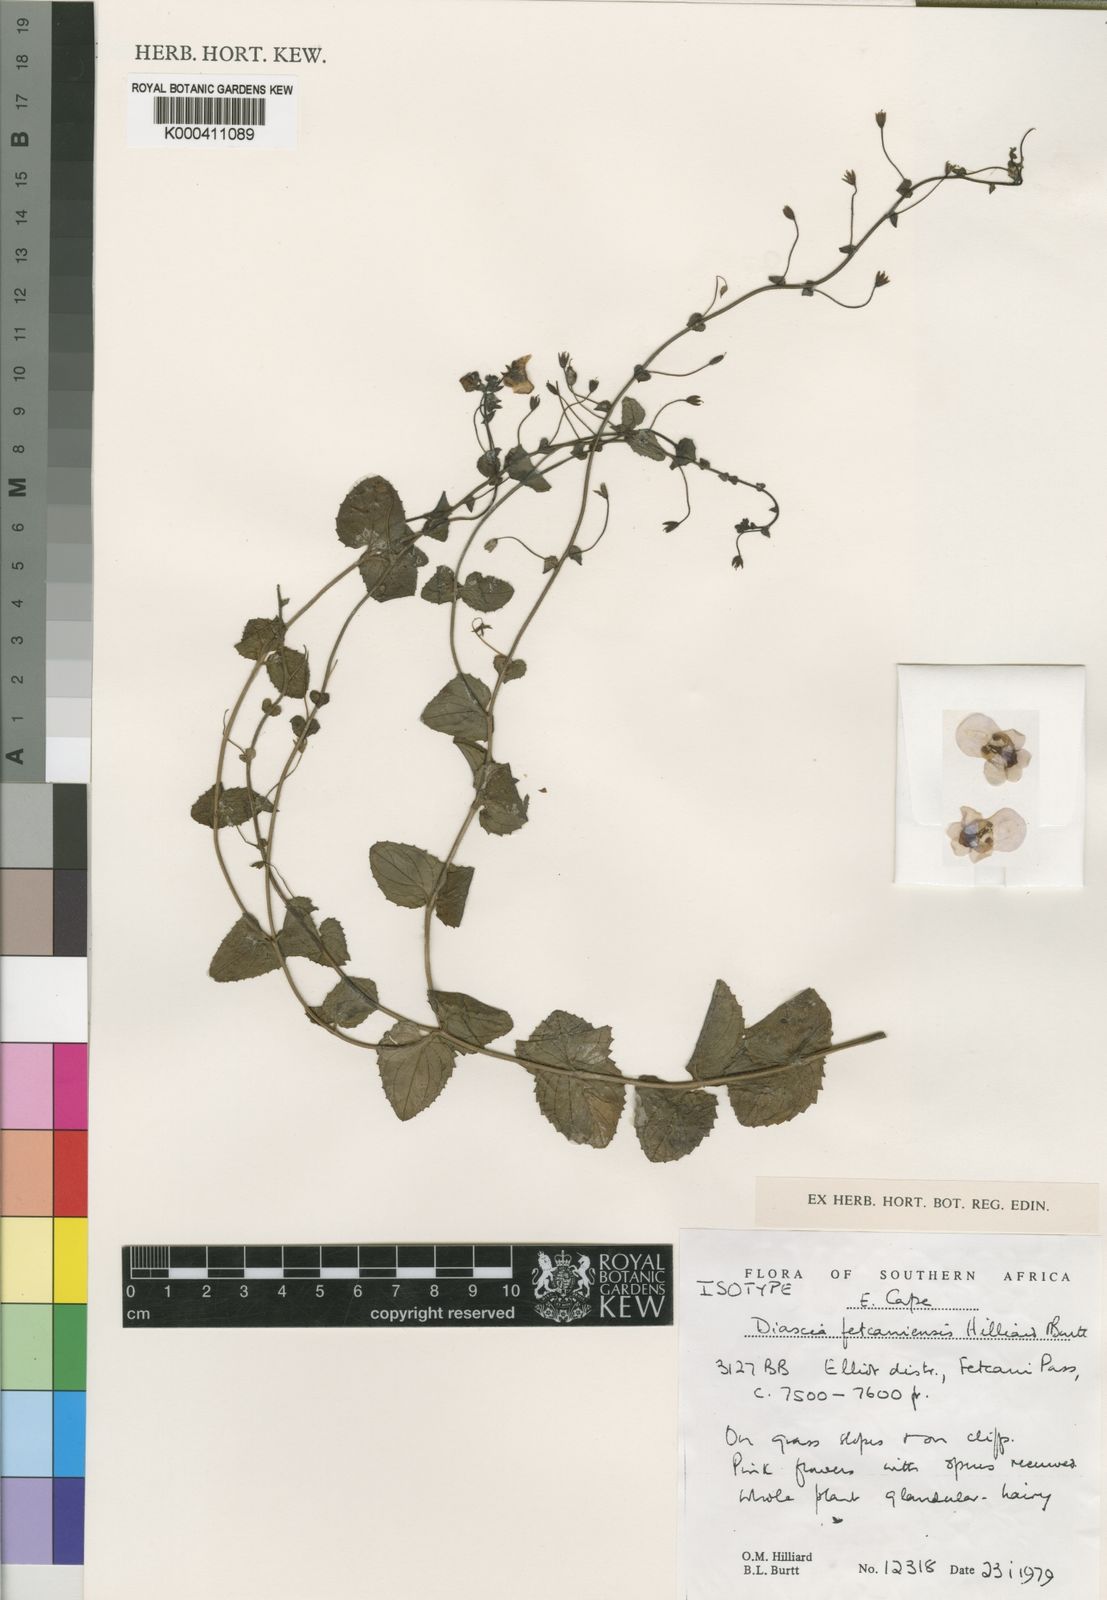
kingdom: Plantae
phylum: Tracheophyta
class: Magnoliopsida
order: Lamiales
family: Scrophulariaceae
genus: Diascia
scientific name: Diascia fetcaniensis
